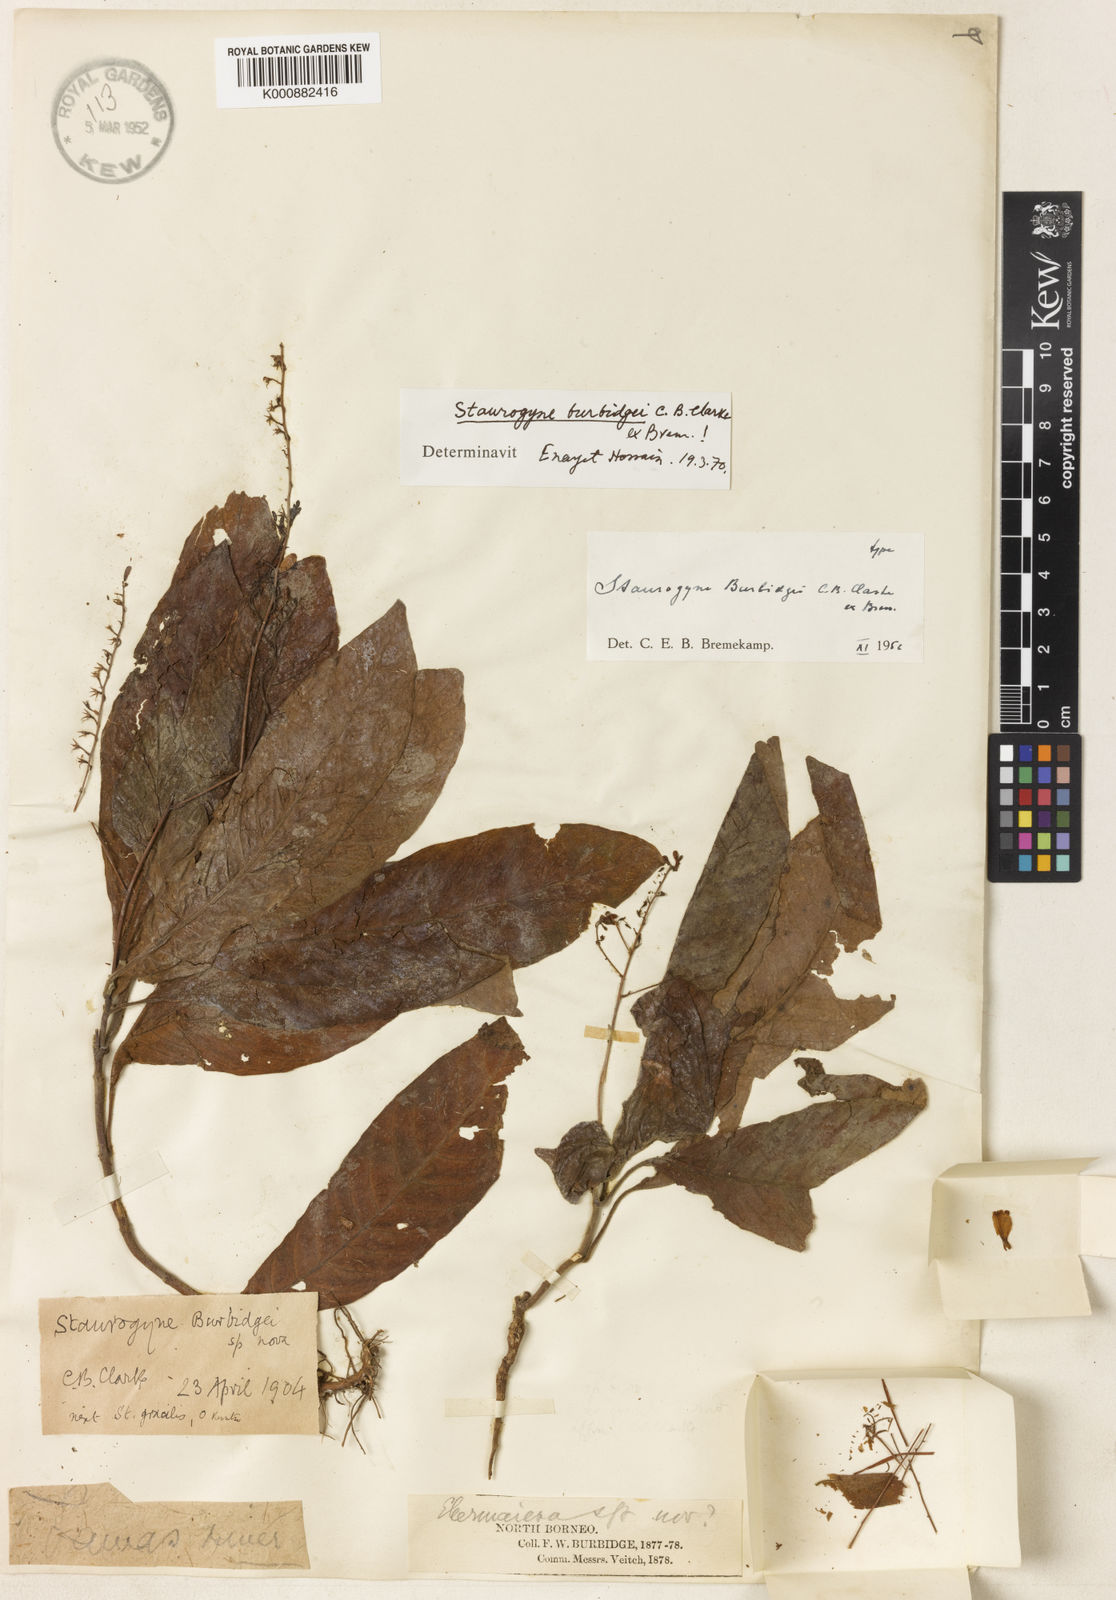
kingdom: Plantae
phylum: Tracheophyta
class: Magnoliopsida
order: Lamiales
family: Acanthaceae
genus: Staurogyne
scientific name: Staurogyne burbidgei
